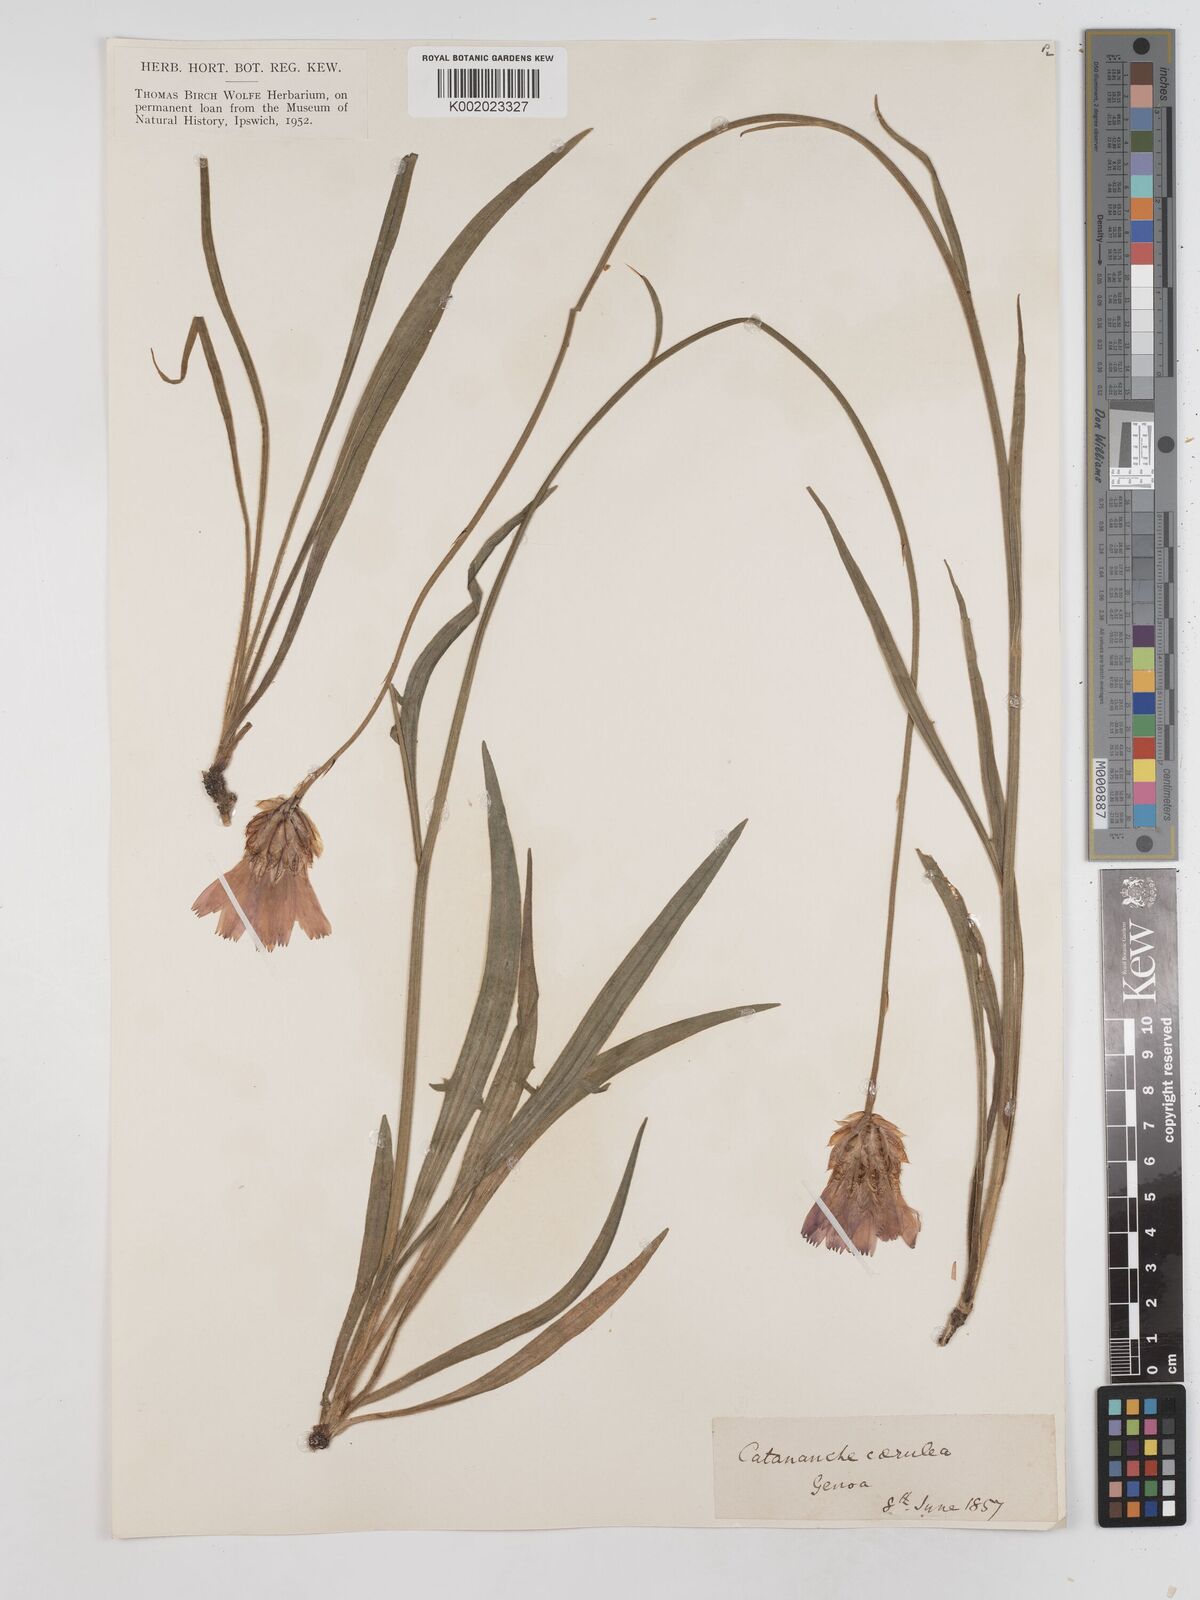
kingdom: Plantae
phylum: Tracheophyta
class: Magnoliopsida
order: Asterales
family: Asteraceae
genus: Catananche
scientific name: Catananche caerulea
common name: Blue cupidone
